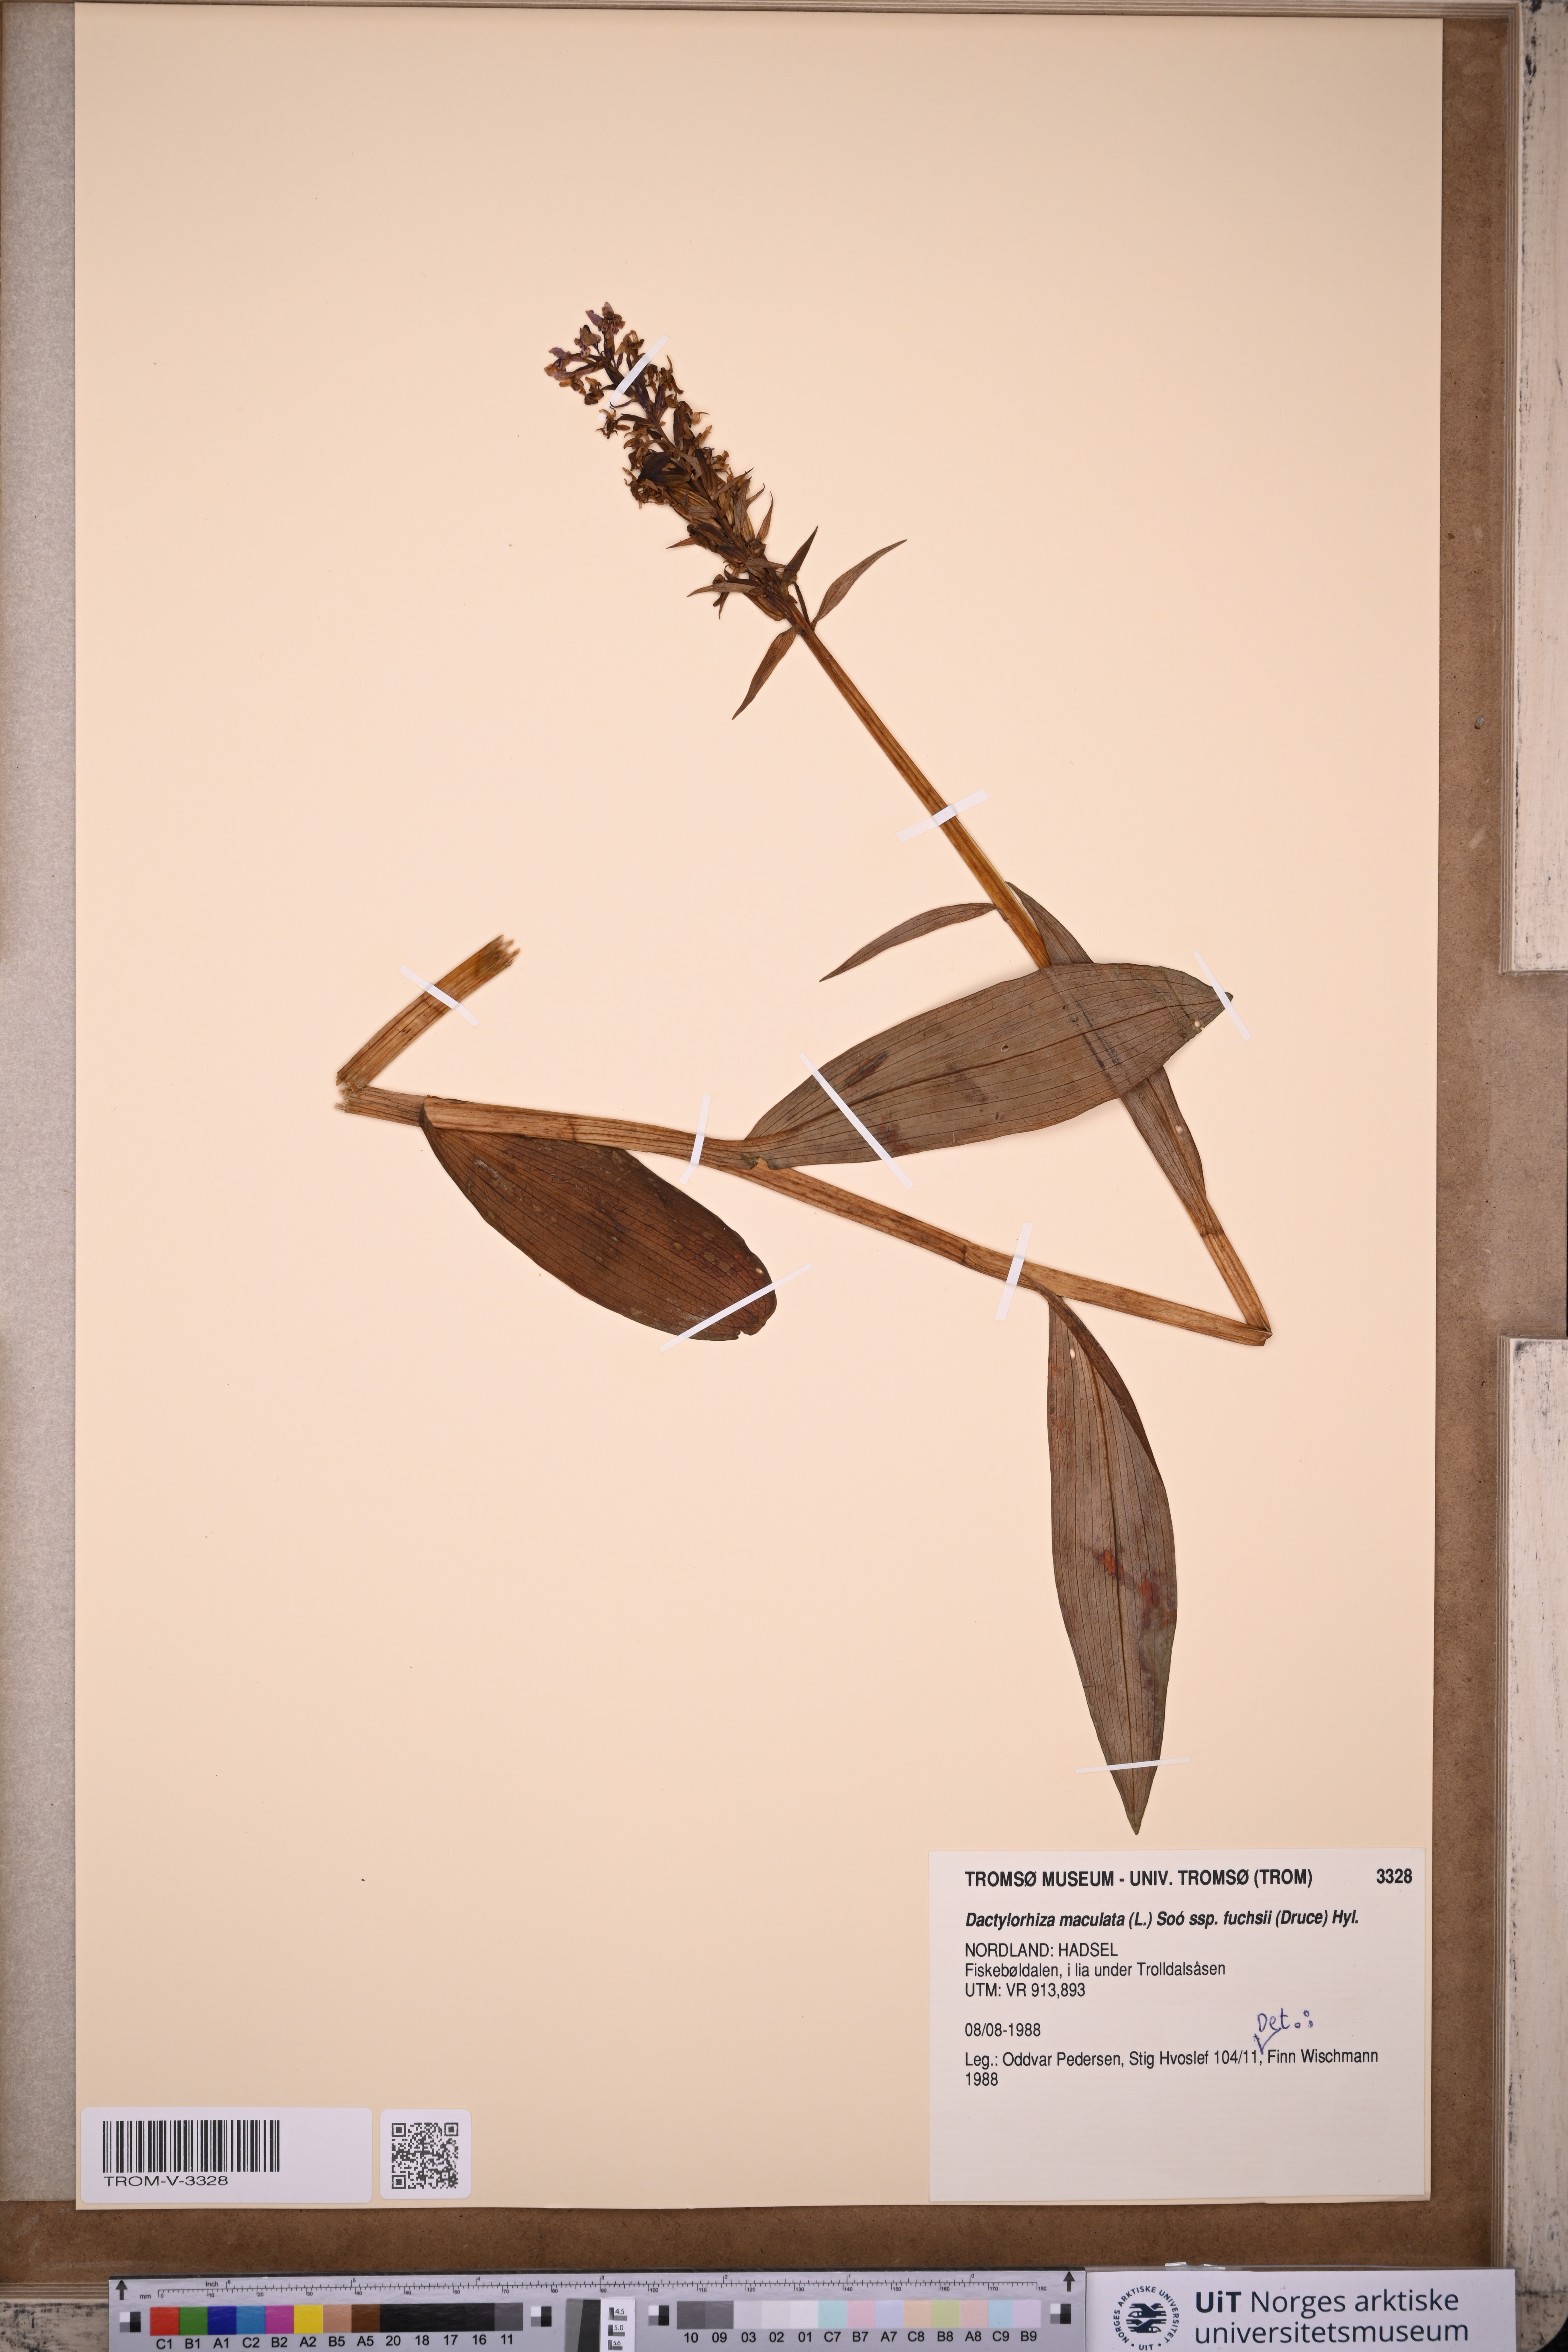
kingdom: Plantae
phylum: Tracheophyta
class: Liliopsida
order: Asparagales
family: Orchidaceae
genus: Dactylorhiza
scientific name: Dactylorhiza maculata
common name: Heath spotted-orchid
